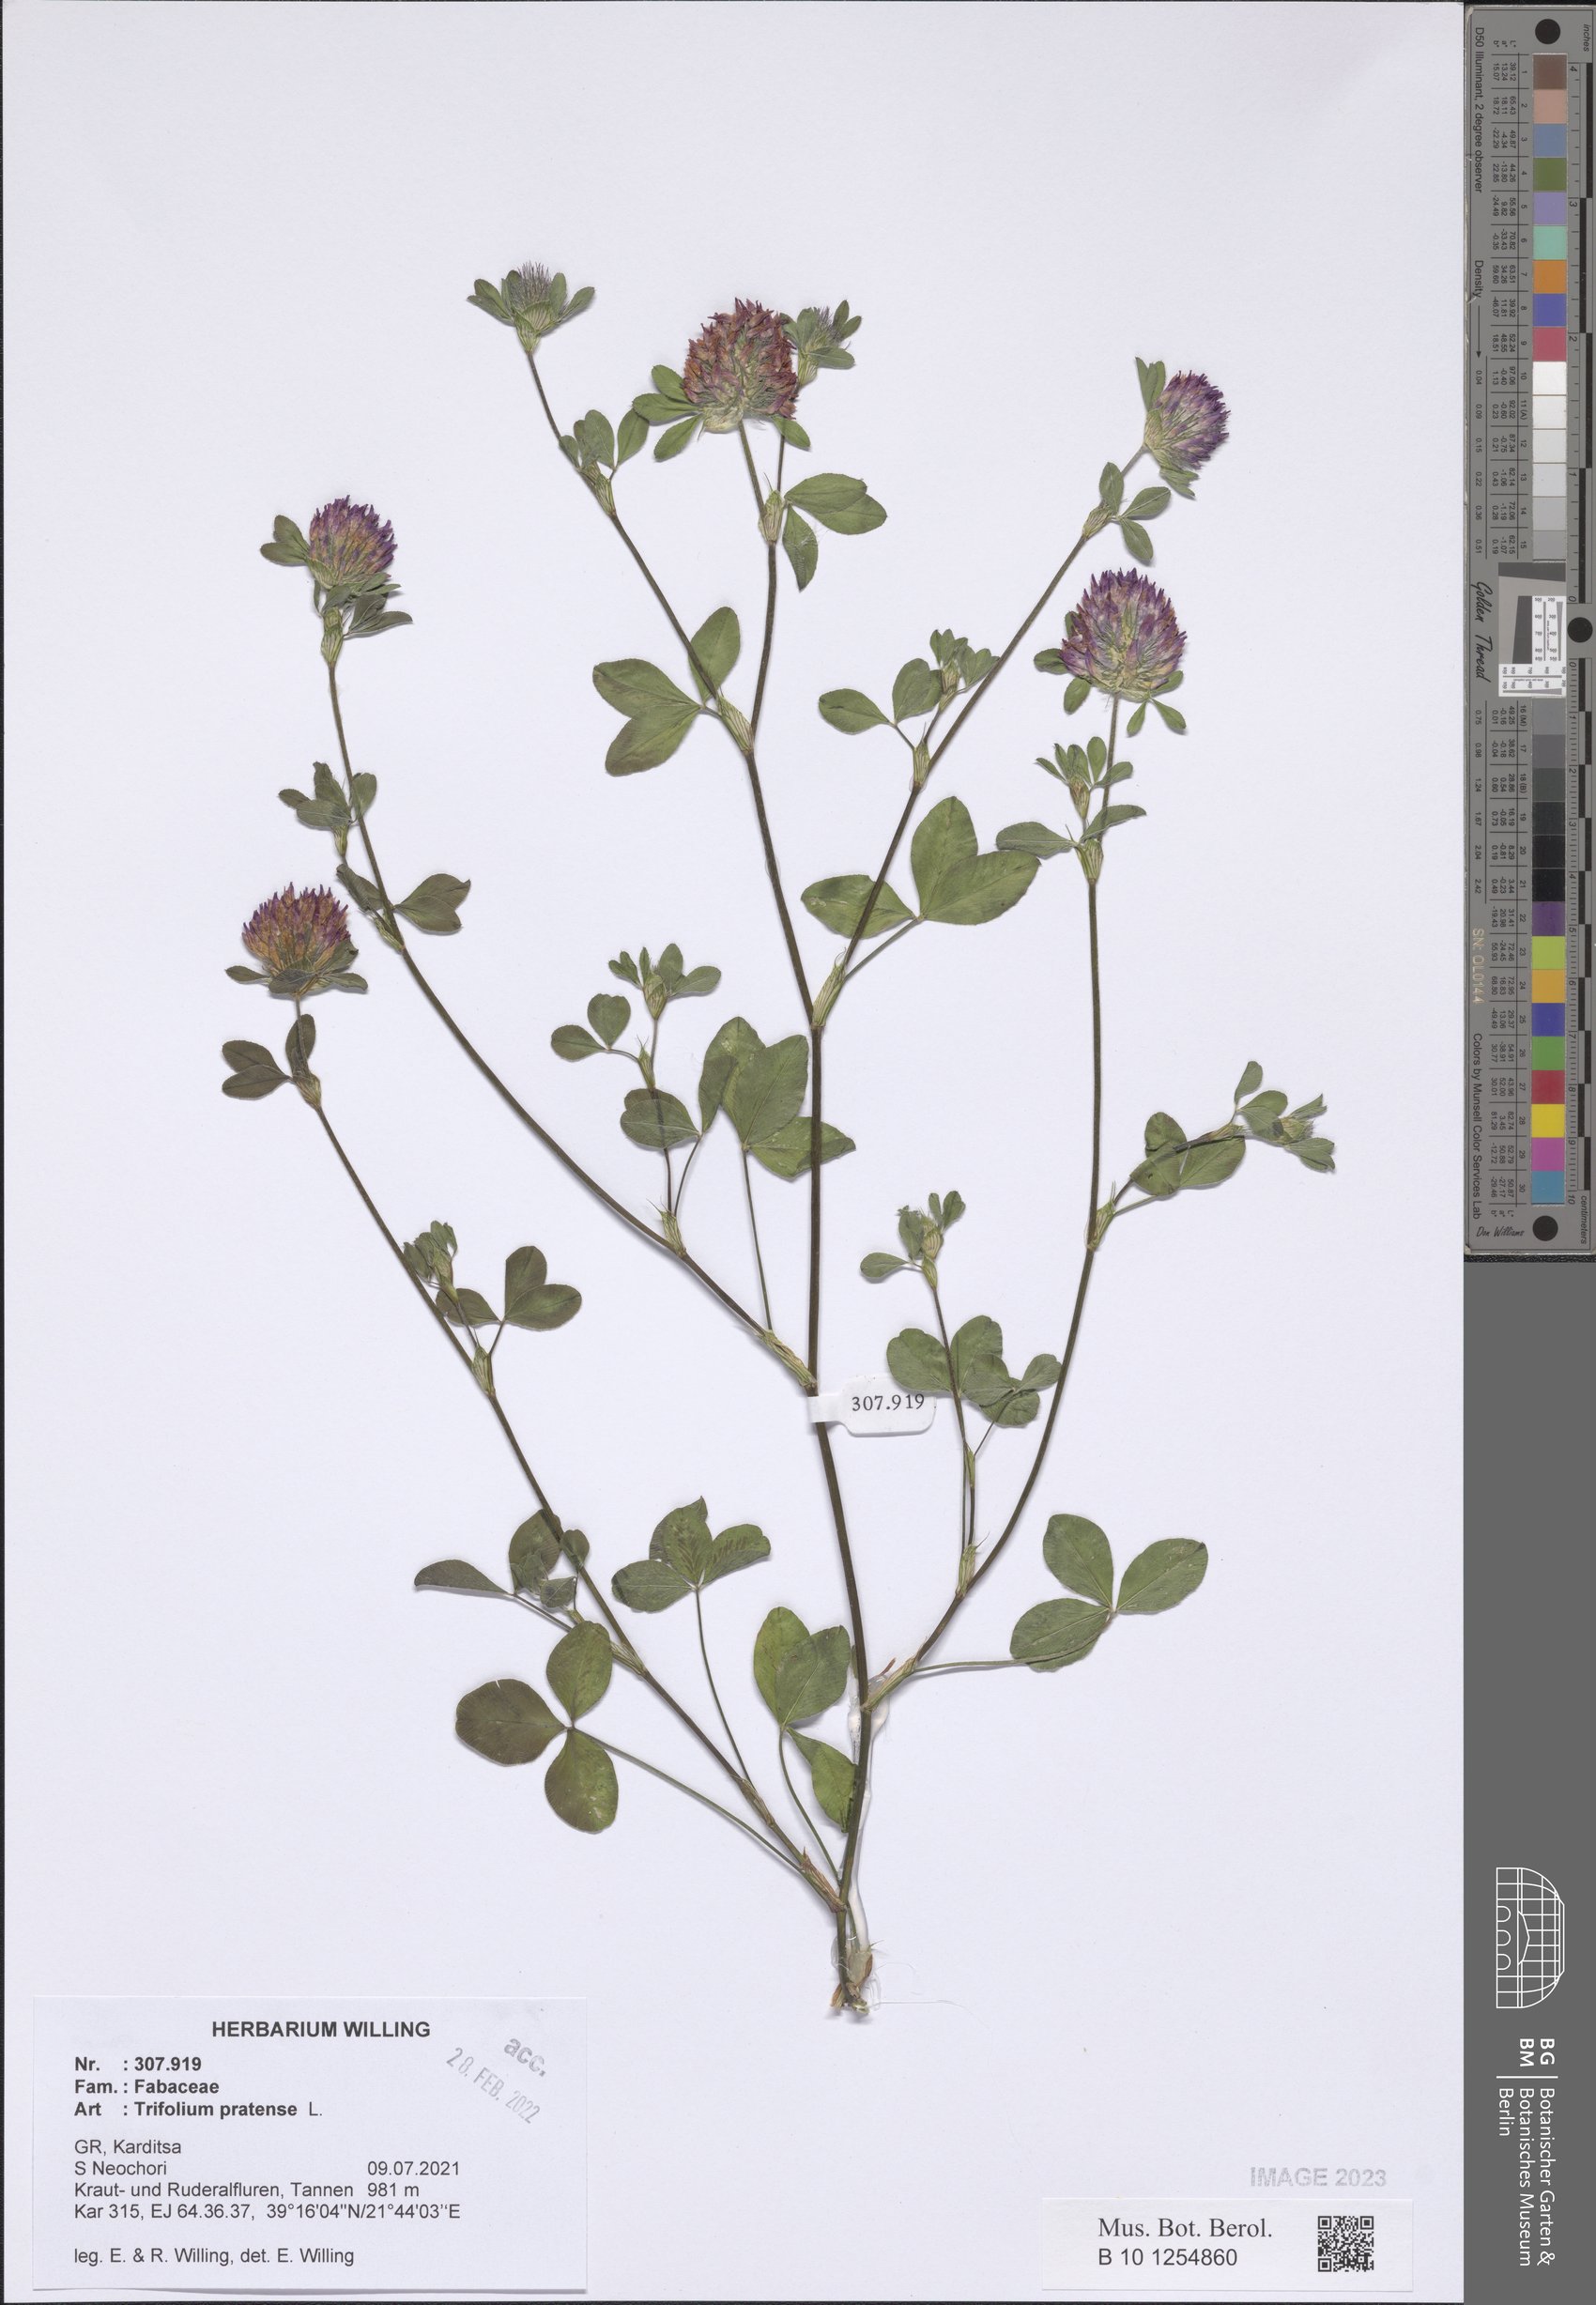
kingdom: Plantae
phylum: Tracheophyta
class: Magnoliopsida
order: Fabales
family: Fabaceae
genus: Trifolium
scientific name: Trifolium pratense
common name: Red clover
